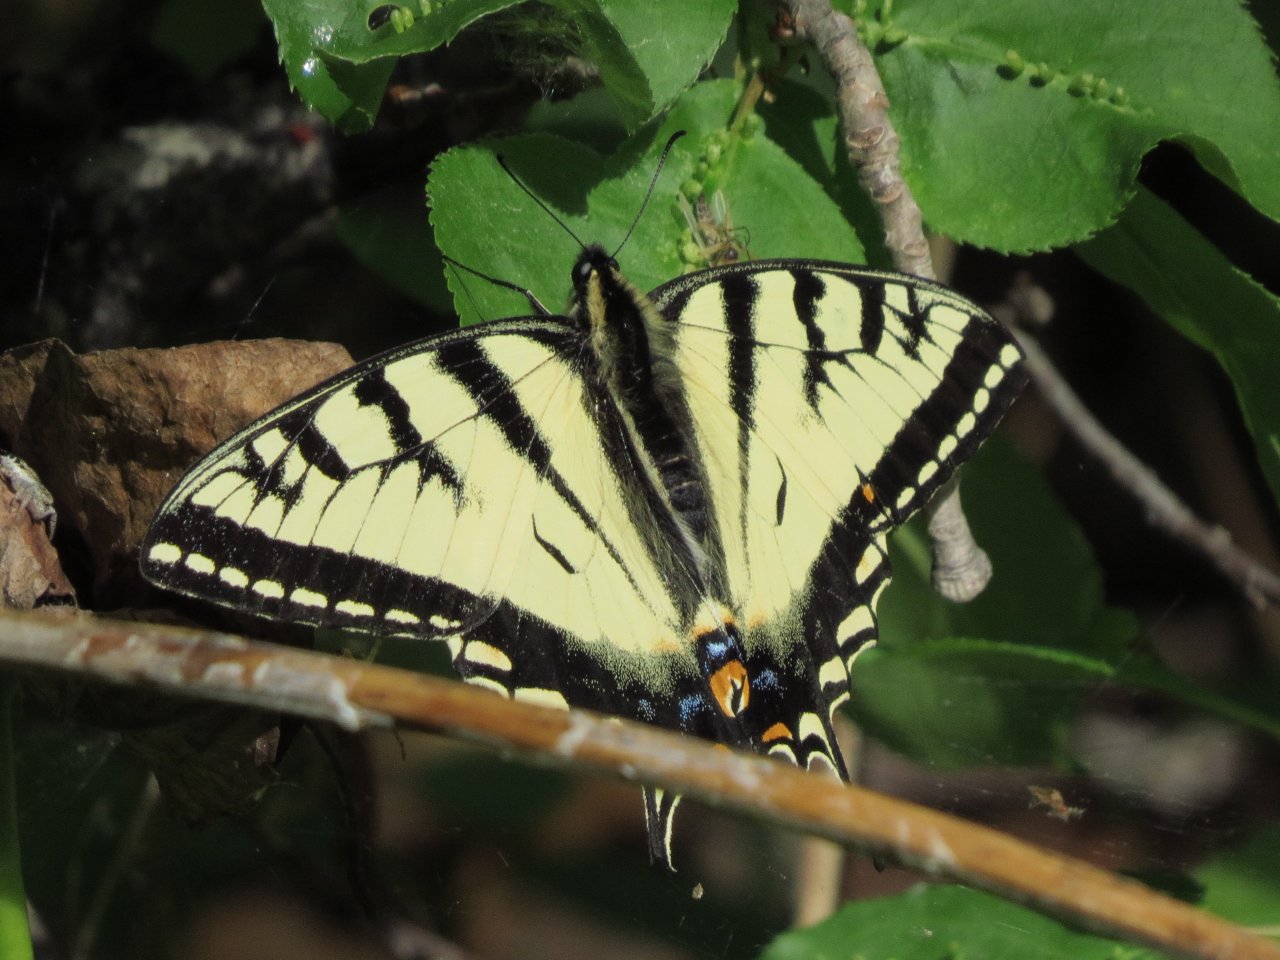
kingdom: Animalia
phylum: Arthropoda
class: Insecta
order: Lepidoptera
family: Papilionidae
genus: Pterourus
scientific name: Pterourus canadensis
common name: Canadian Tiger Swallowtail
